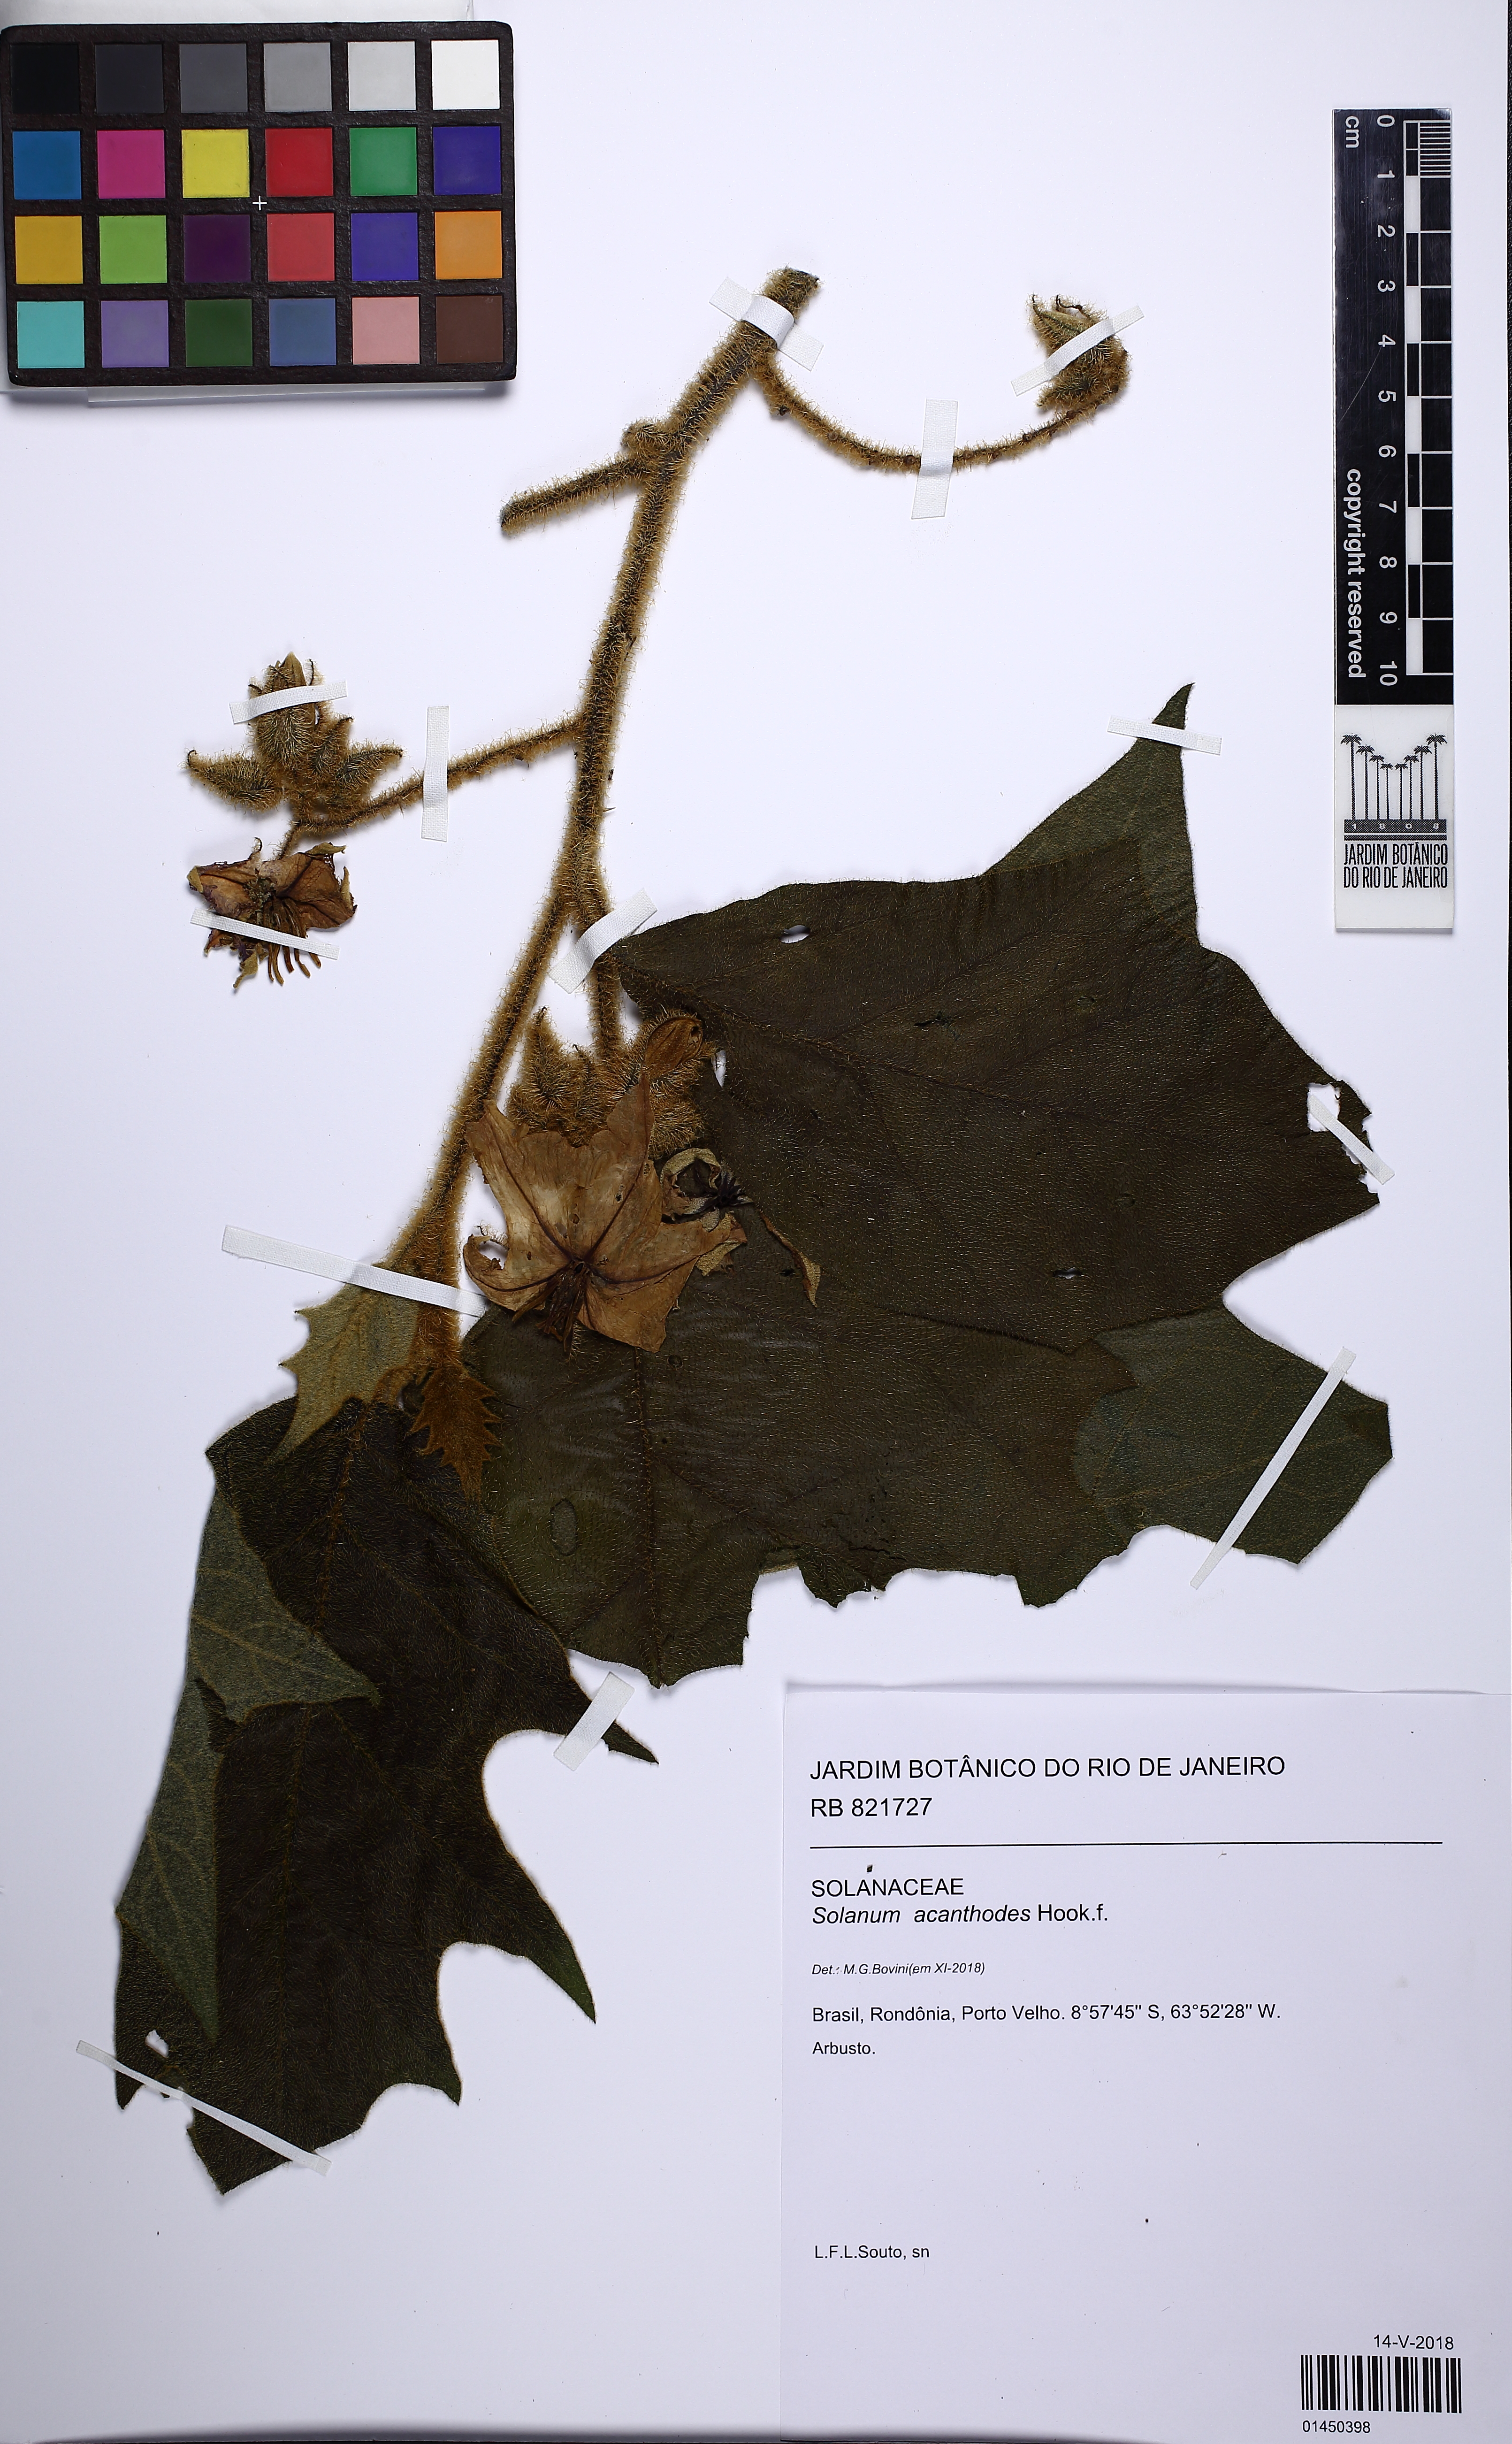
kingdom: Plantae
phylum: Tracheophyta
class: Magnoliopsida
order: Solanales
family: Solanaceae
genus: Solanum
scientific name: Solanum vanheurckii
